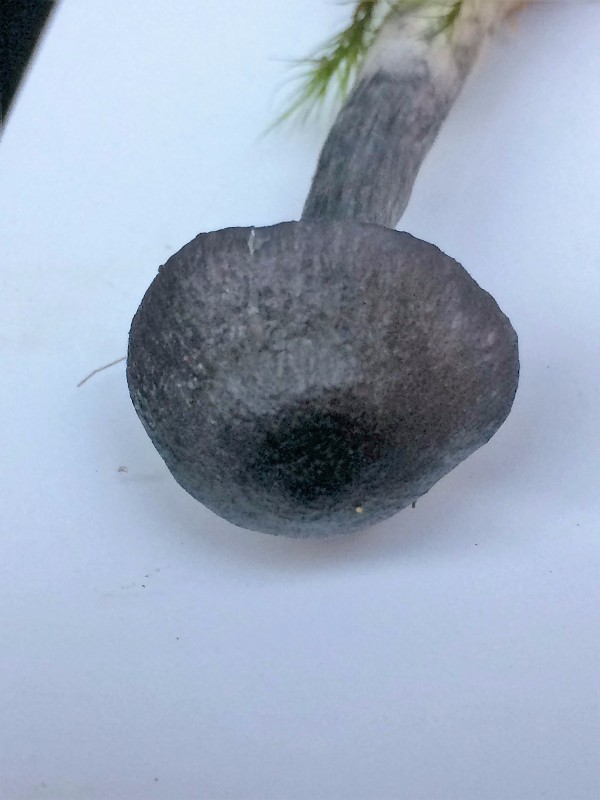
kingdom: Fungi
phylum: Basidiomycota
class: Agaricomycetes
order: Agaricales
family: Entolomataceae
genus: Entocybe
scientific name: Entocybe nitida
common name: stålblå rødblad
